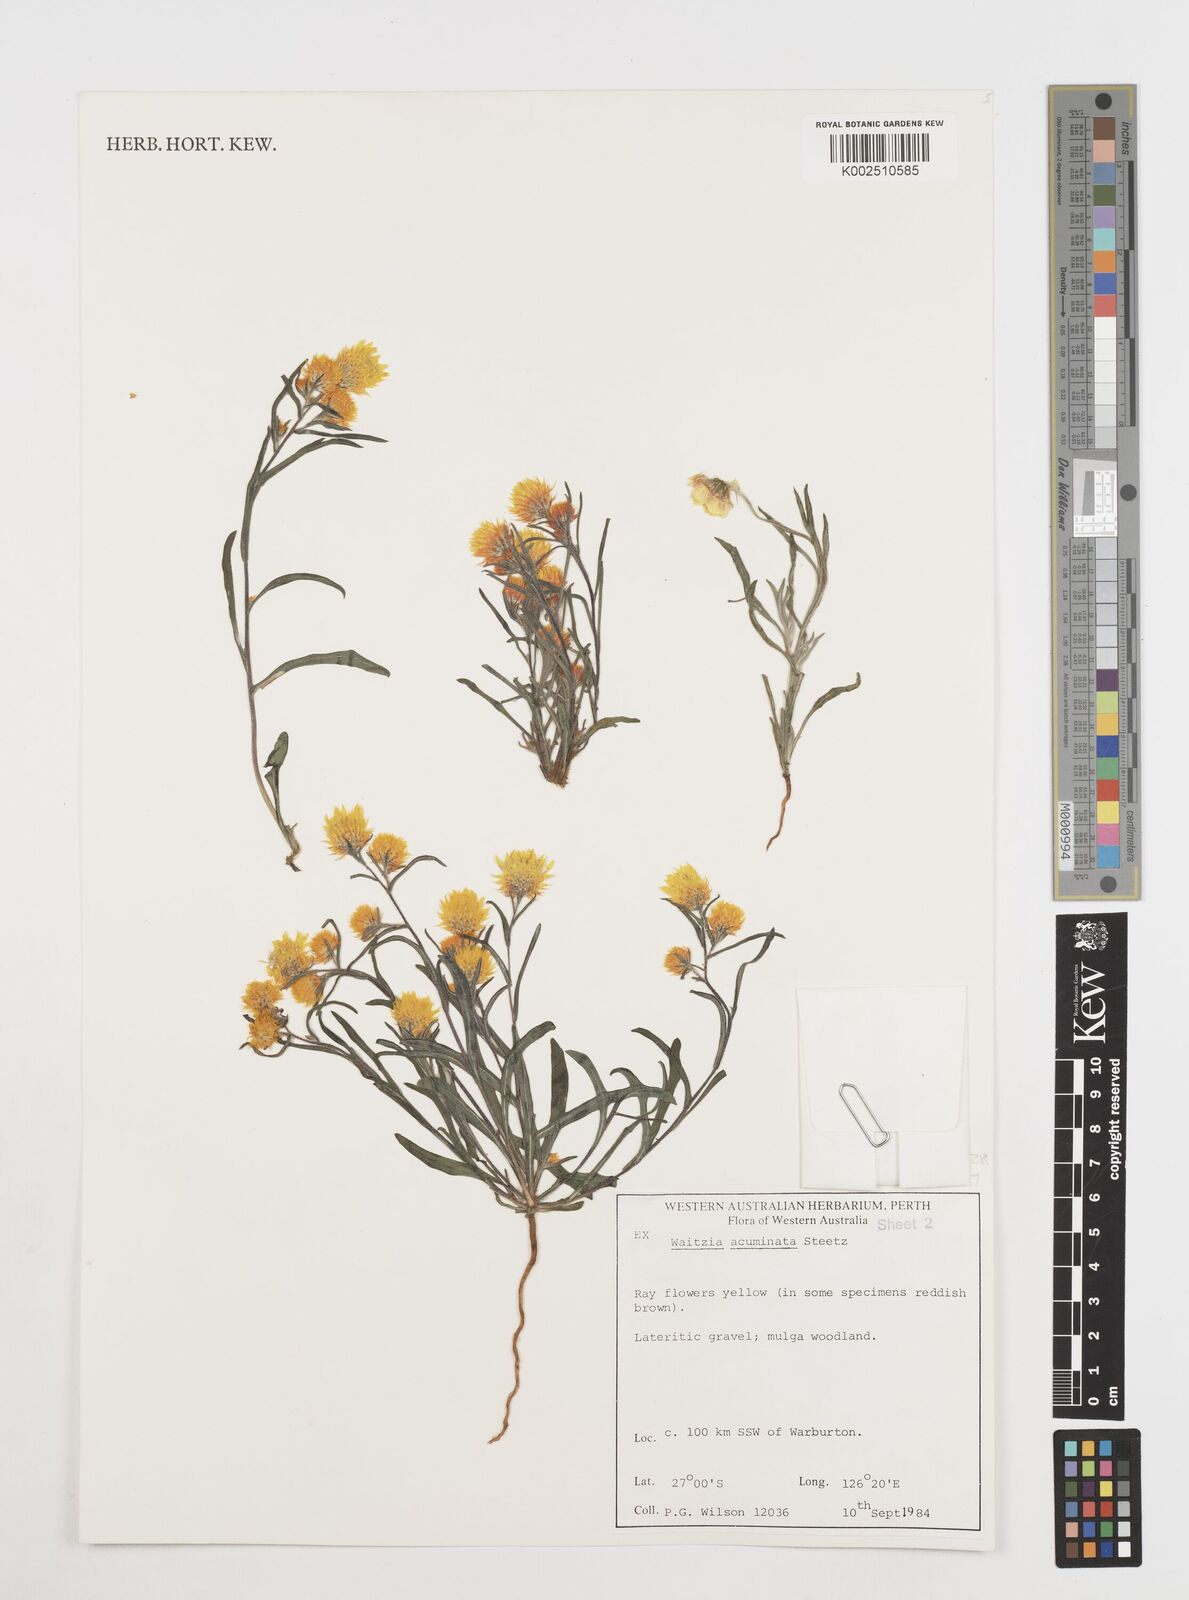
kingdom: Plantae
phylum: Tracheophyta
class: Magnoliopsida
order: Asterales
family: Asteraceae
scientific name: Asteraceae
